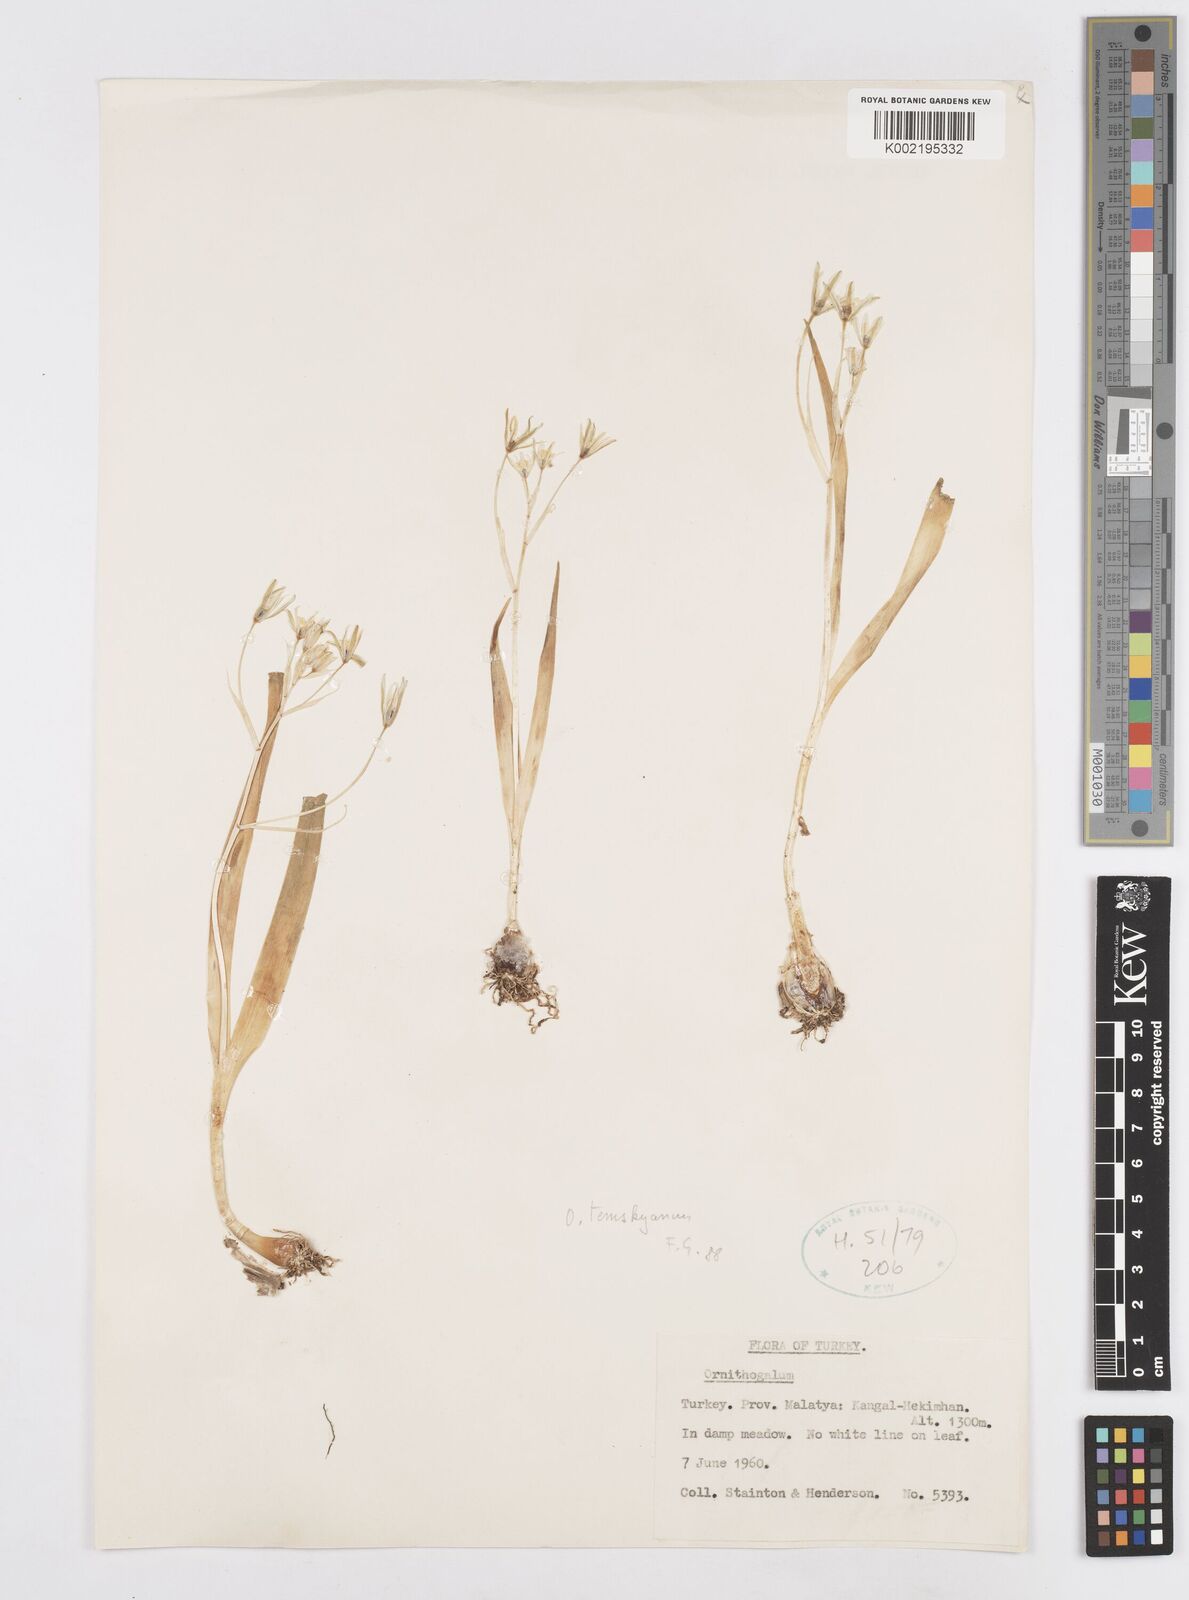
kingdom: Plantae
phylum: Tracheophyta
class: Liliopsida
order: Asparagales
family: Asparagaceae
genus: Ornithogalum
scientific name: Ornithogalum graciliflorum
